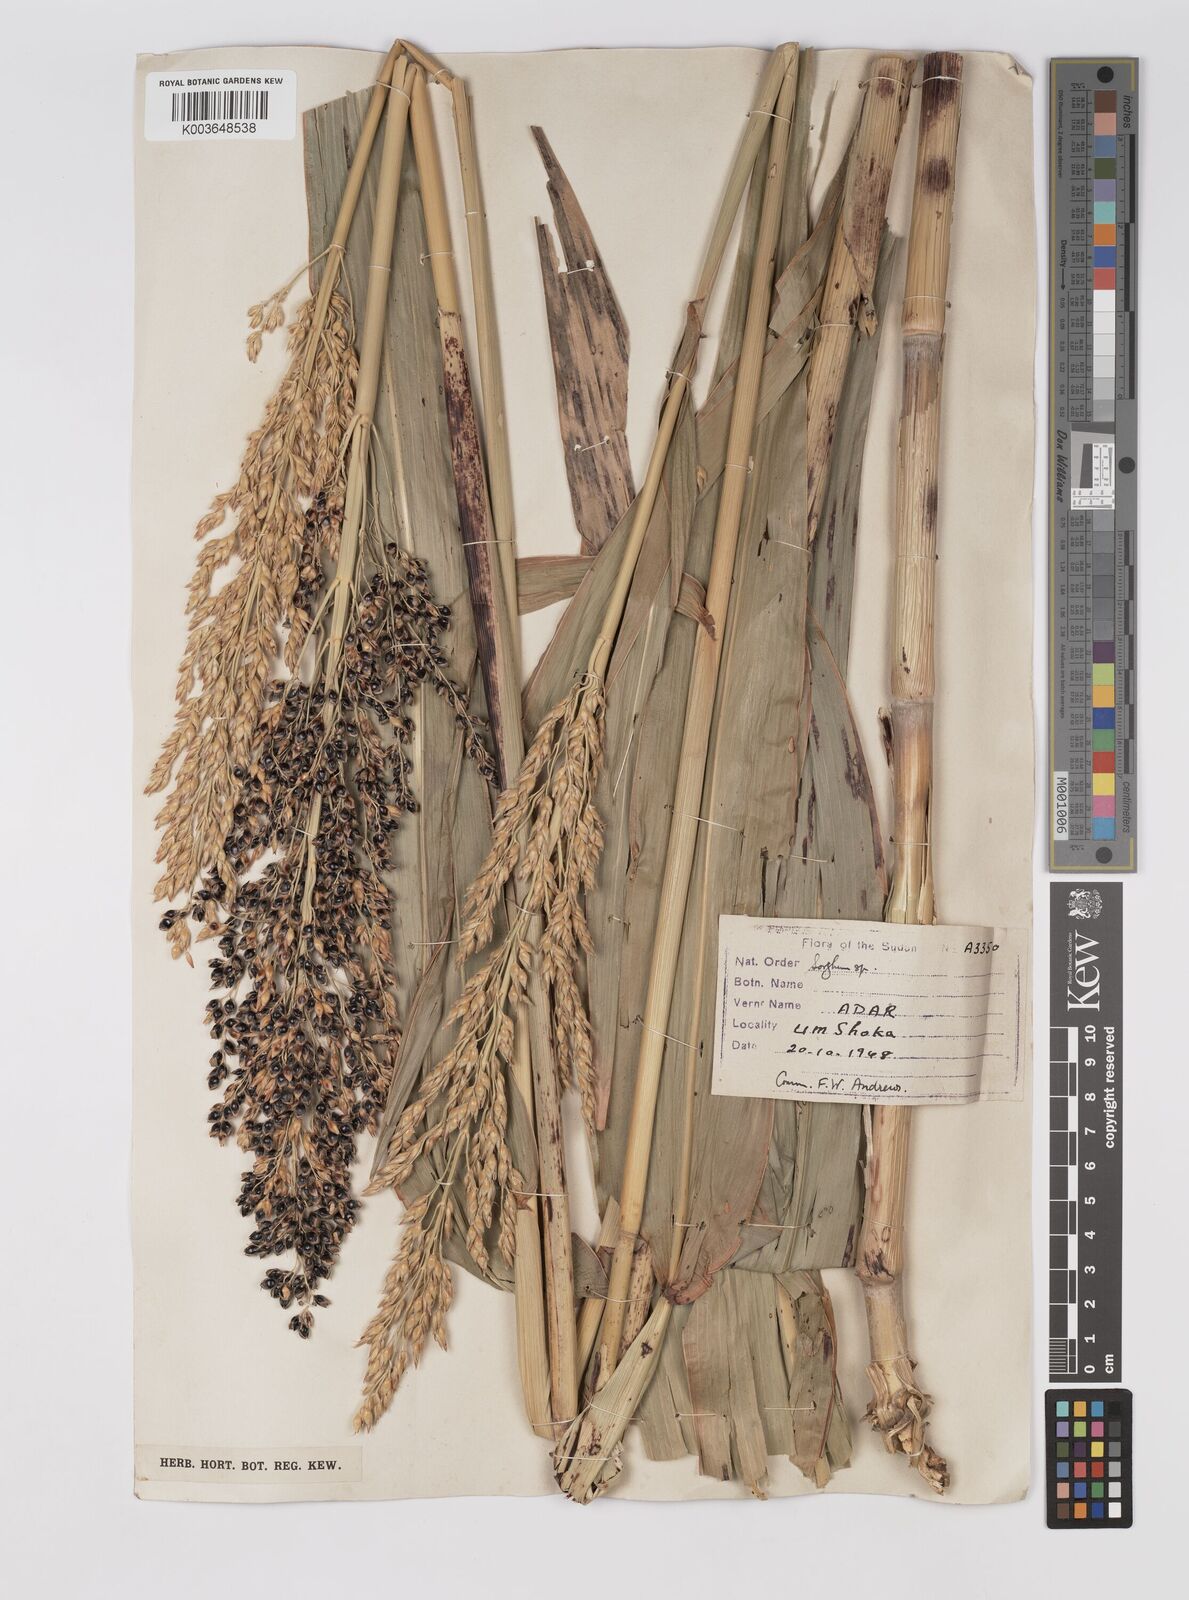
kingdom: Plantae
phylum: Tracheophyta
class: Liliopsida
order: Poales
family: Poaceae
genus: Sorghum
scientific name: Sorghum drummondii
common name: Sudangrass
